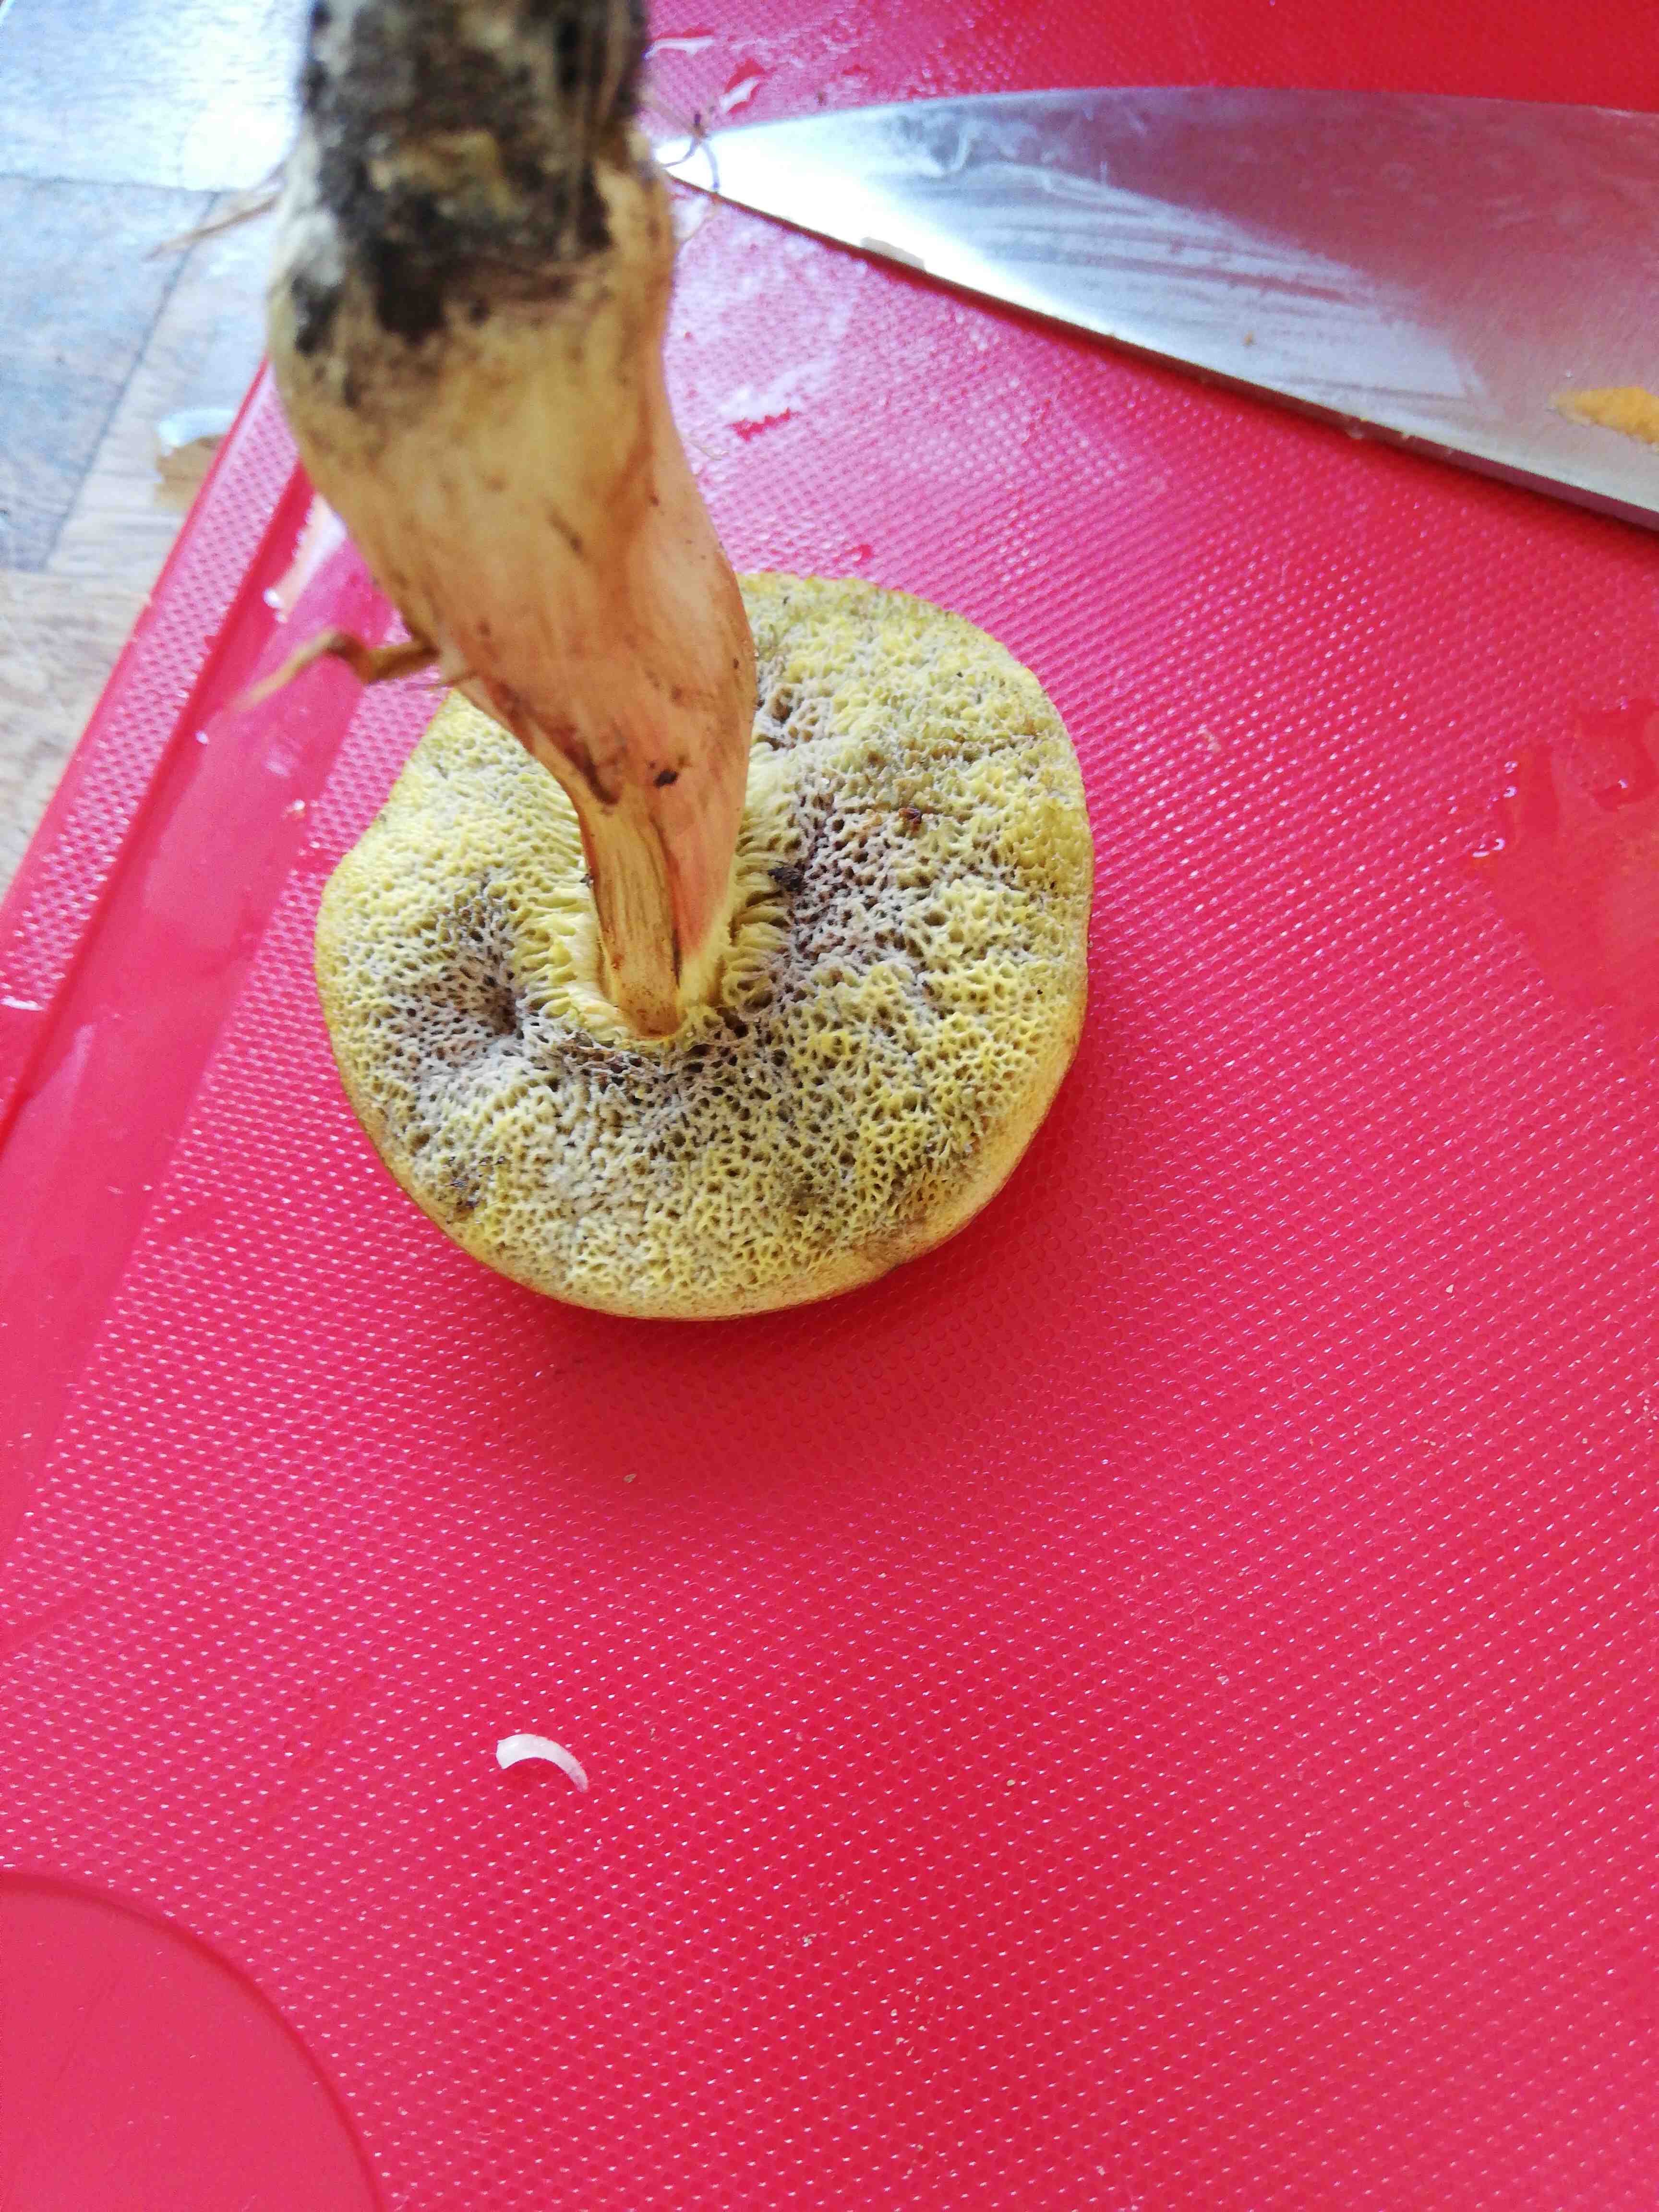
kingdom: Fungi
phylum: Basidiomycota
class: Agaricomycetes
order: Boletales
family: Boletaceae
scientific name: Boletaceae
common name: rørhatfamilien
